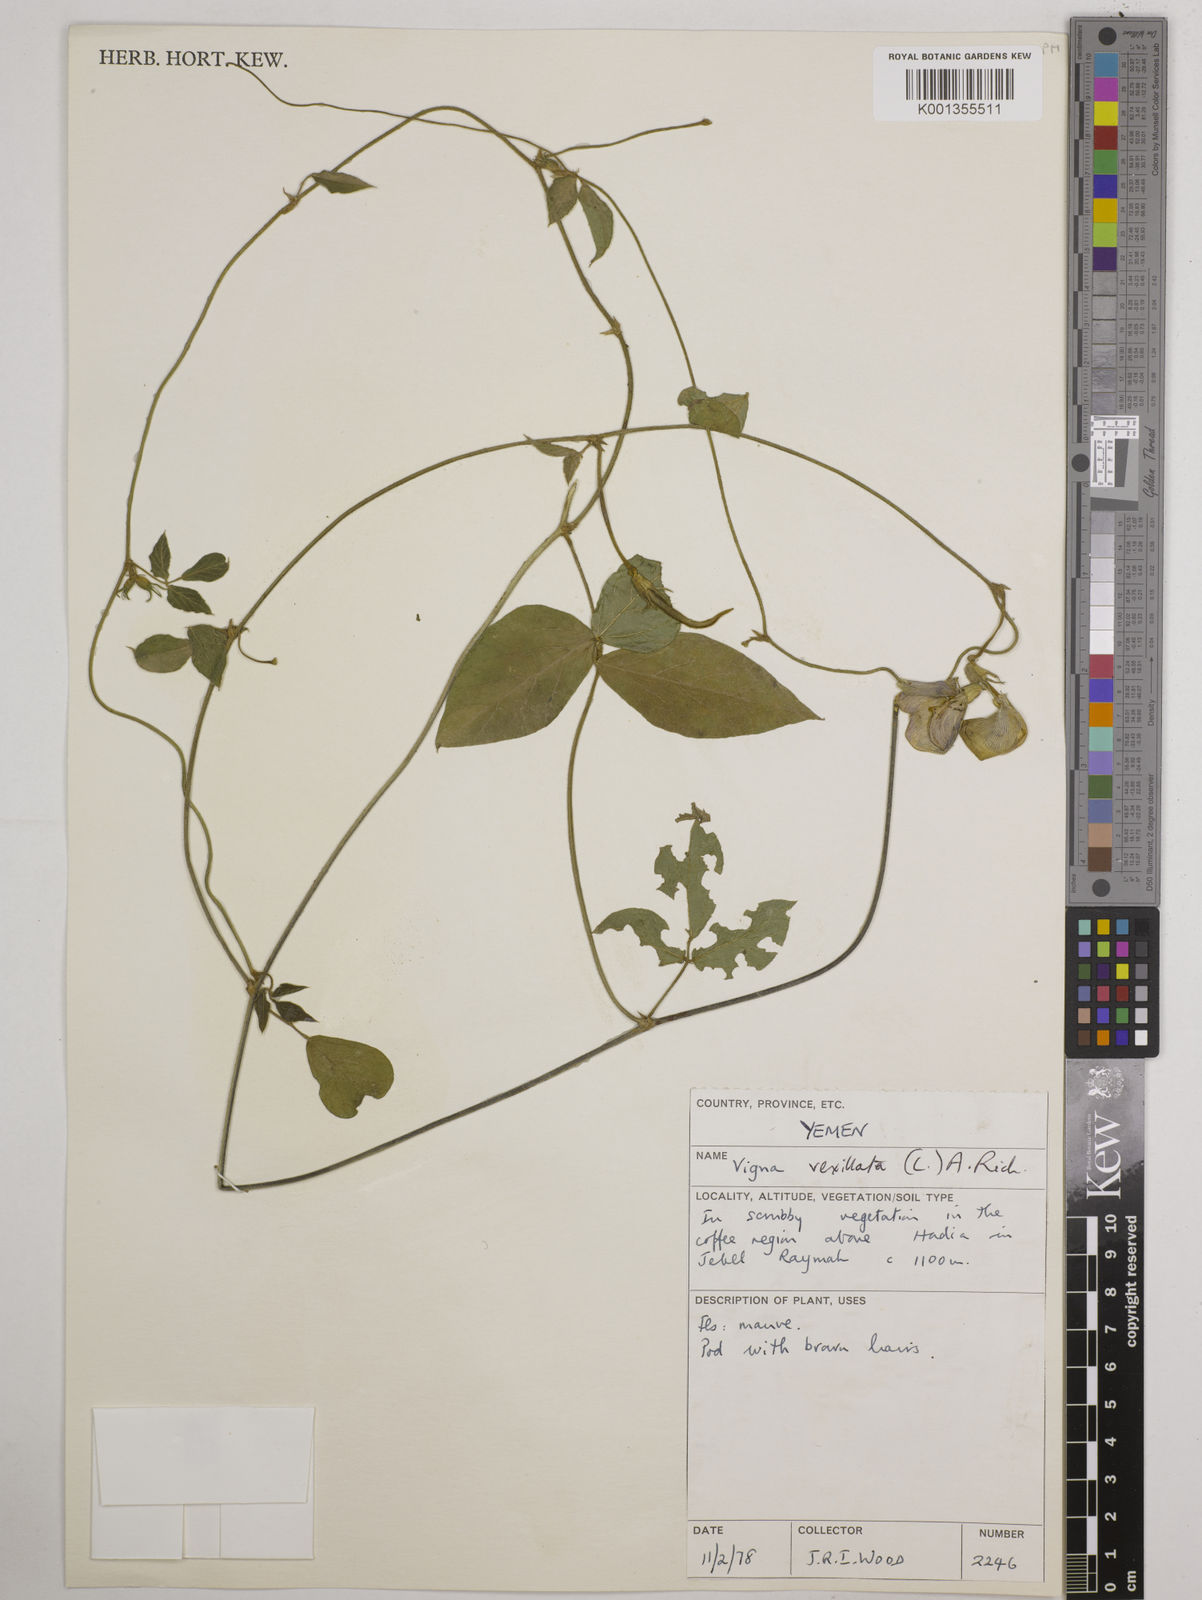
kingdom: Plantae
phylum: Tracheophyta
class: Magnoliopsida
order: Fabales
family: Fabaceae
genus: Vigna
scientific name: Vigna vexillata
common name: Zombi pea
